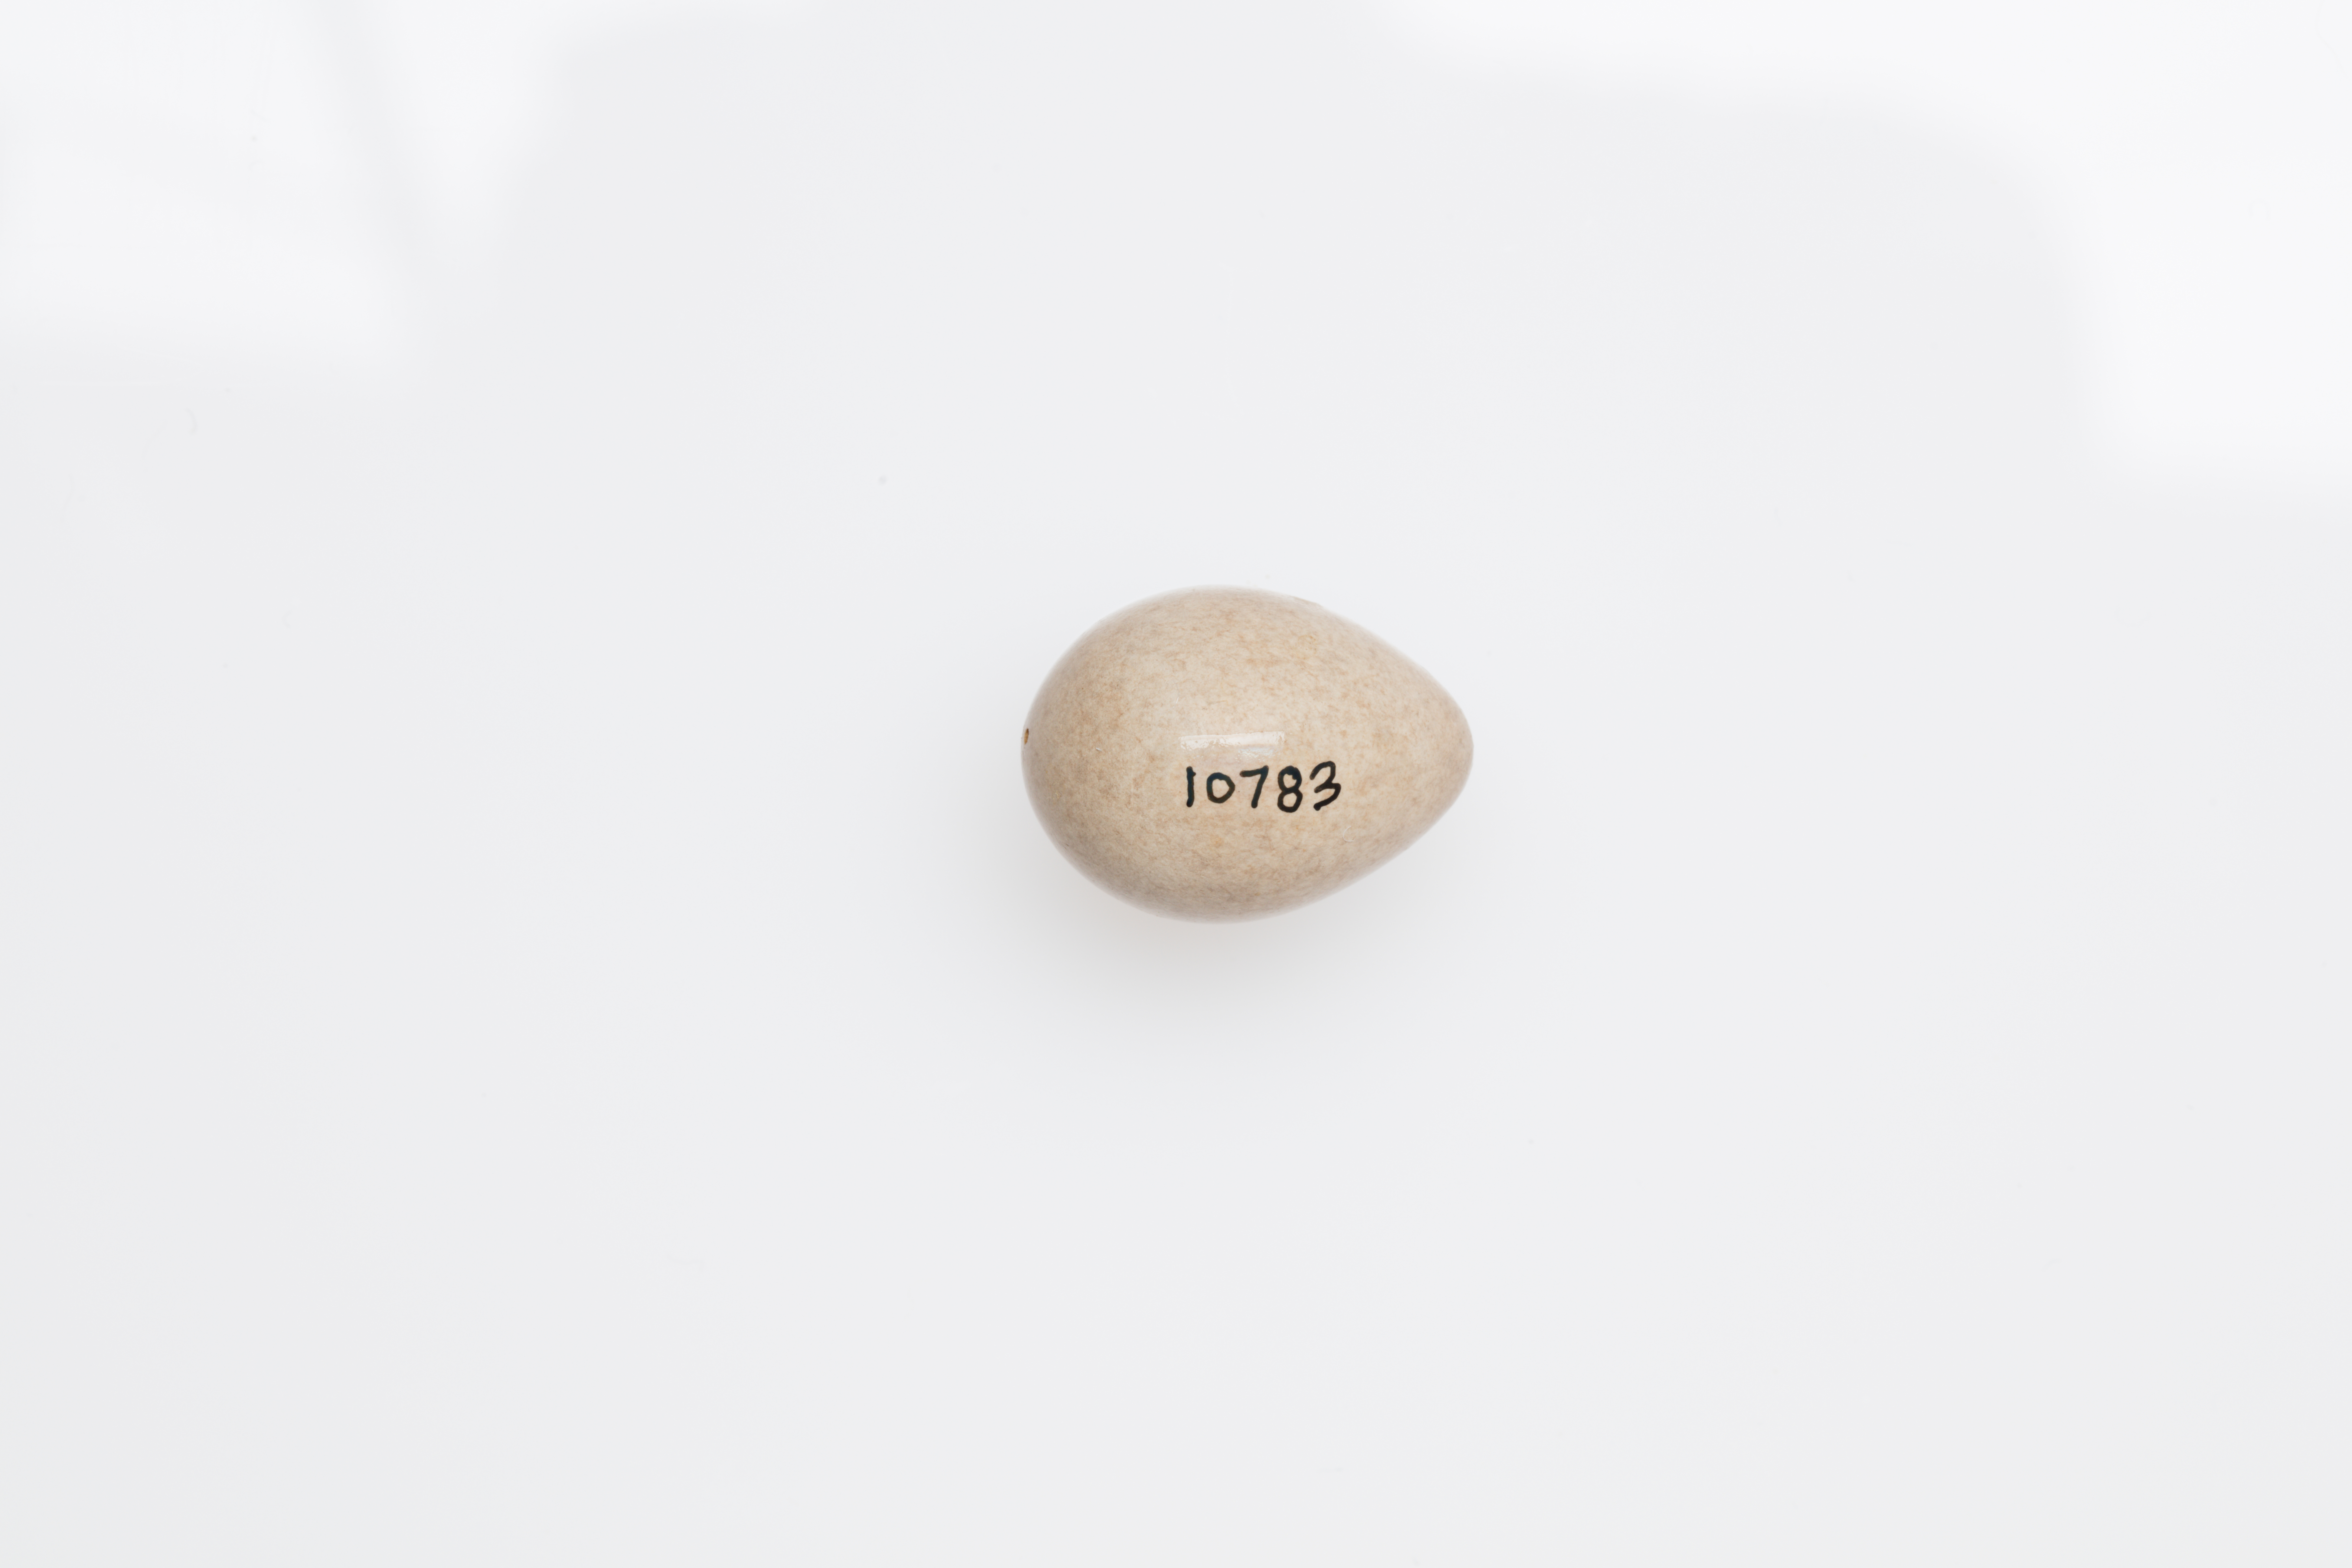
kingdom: Animalia
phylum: Chordata
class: Aves
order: Passeriformes
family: Motacillidae
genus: Motacilla
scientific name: Motacilla flava
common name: Western yellow wagtail
